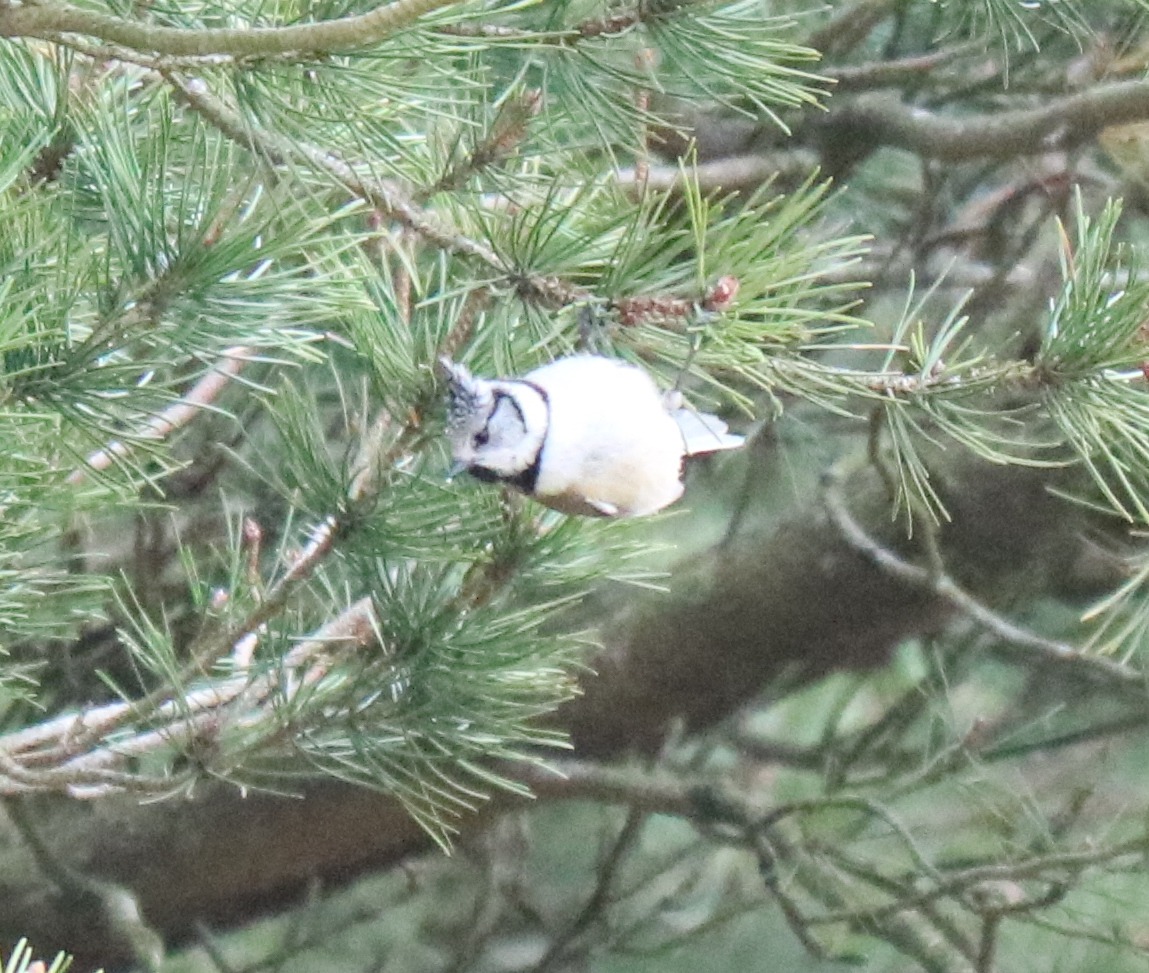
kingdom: Animalia
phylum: Chordata
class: Aves
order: Passeriformes
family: Paridae
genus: Lophophanes
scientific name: Lophophanes cristatus
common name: Topmejse
